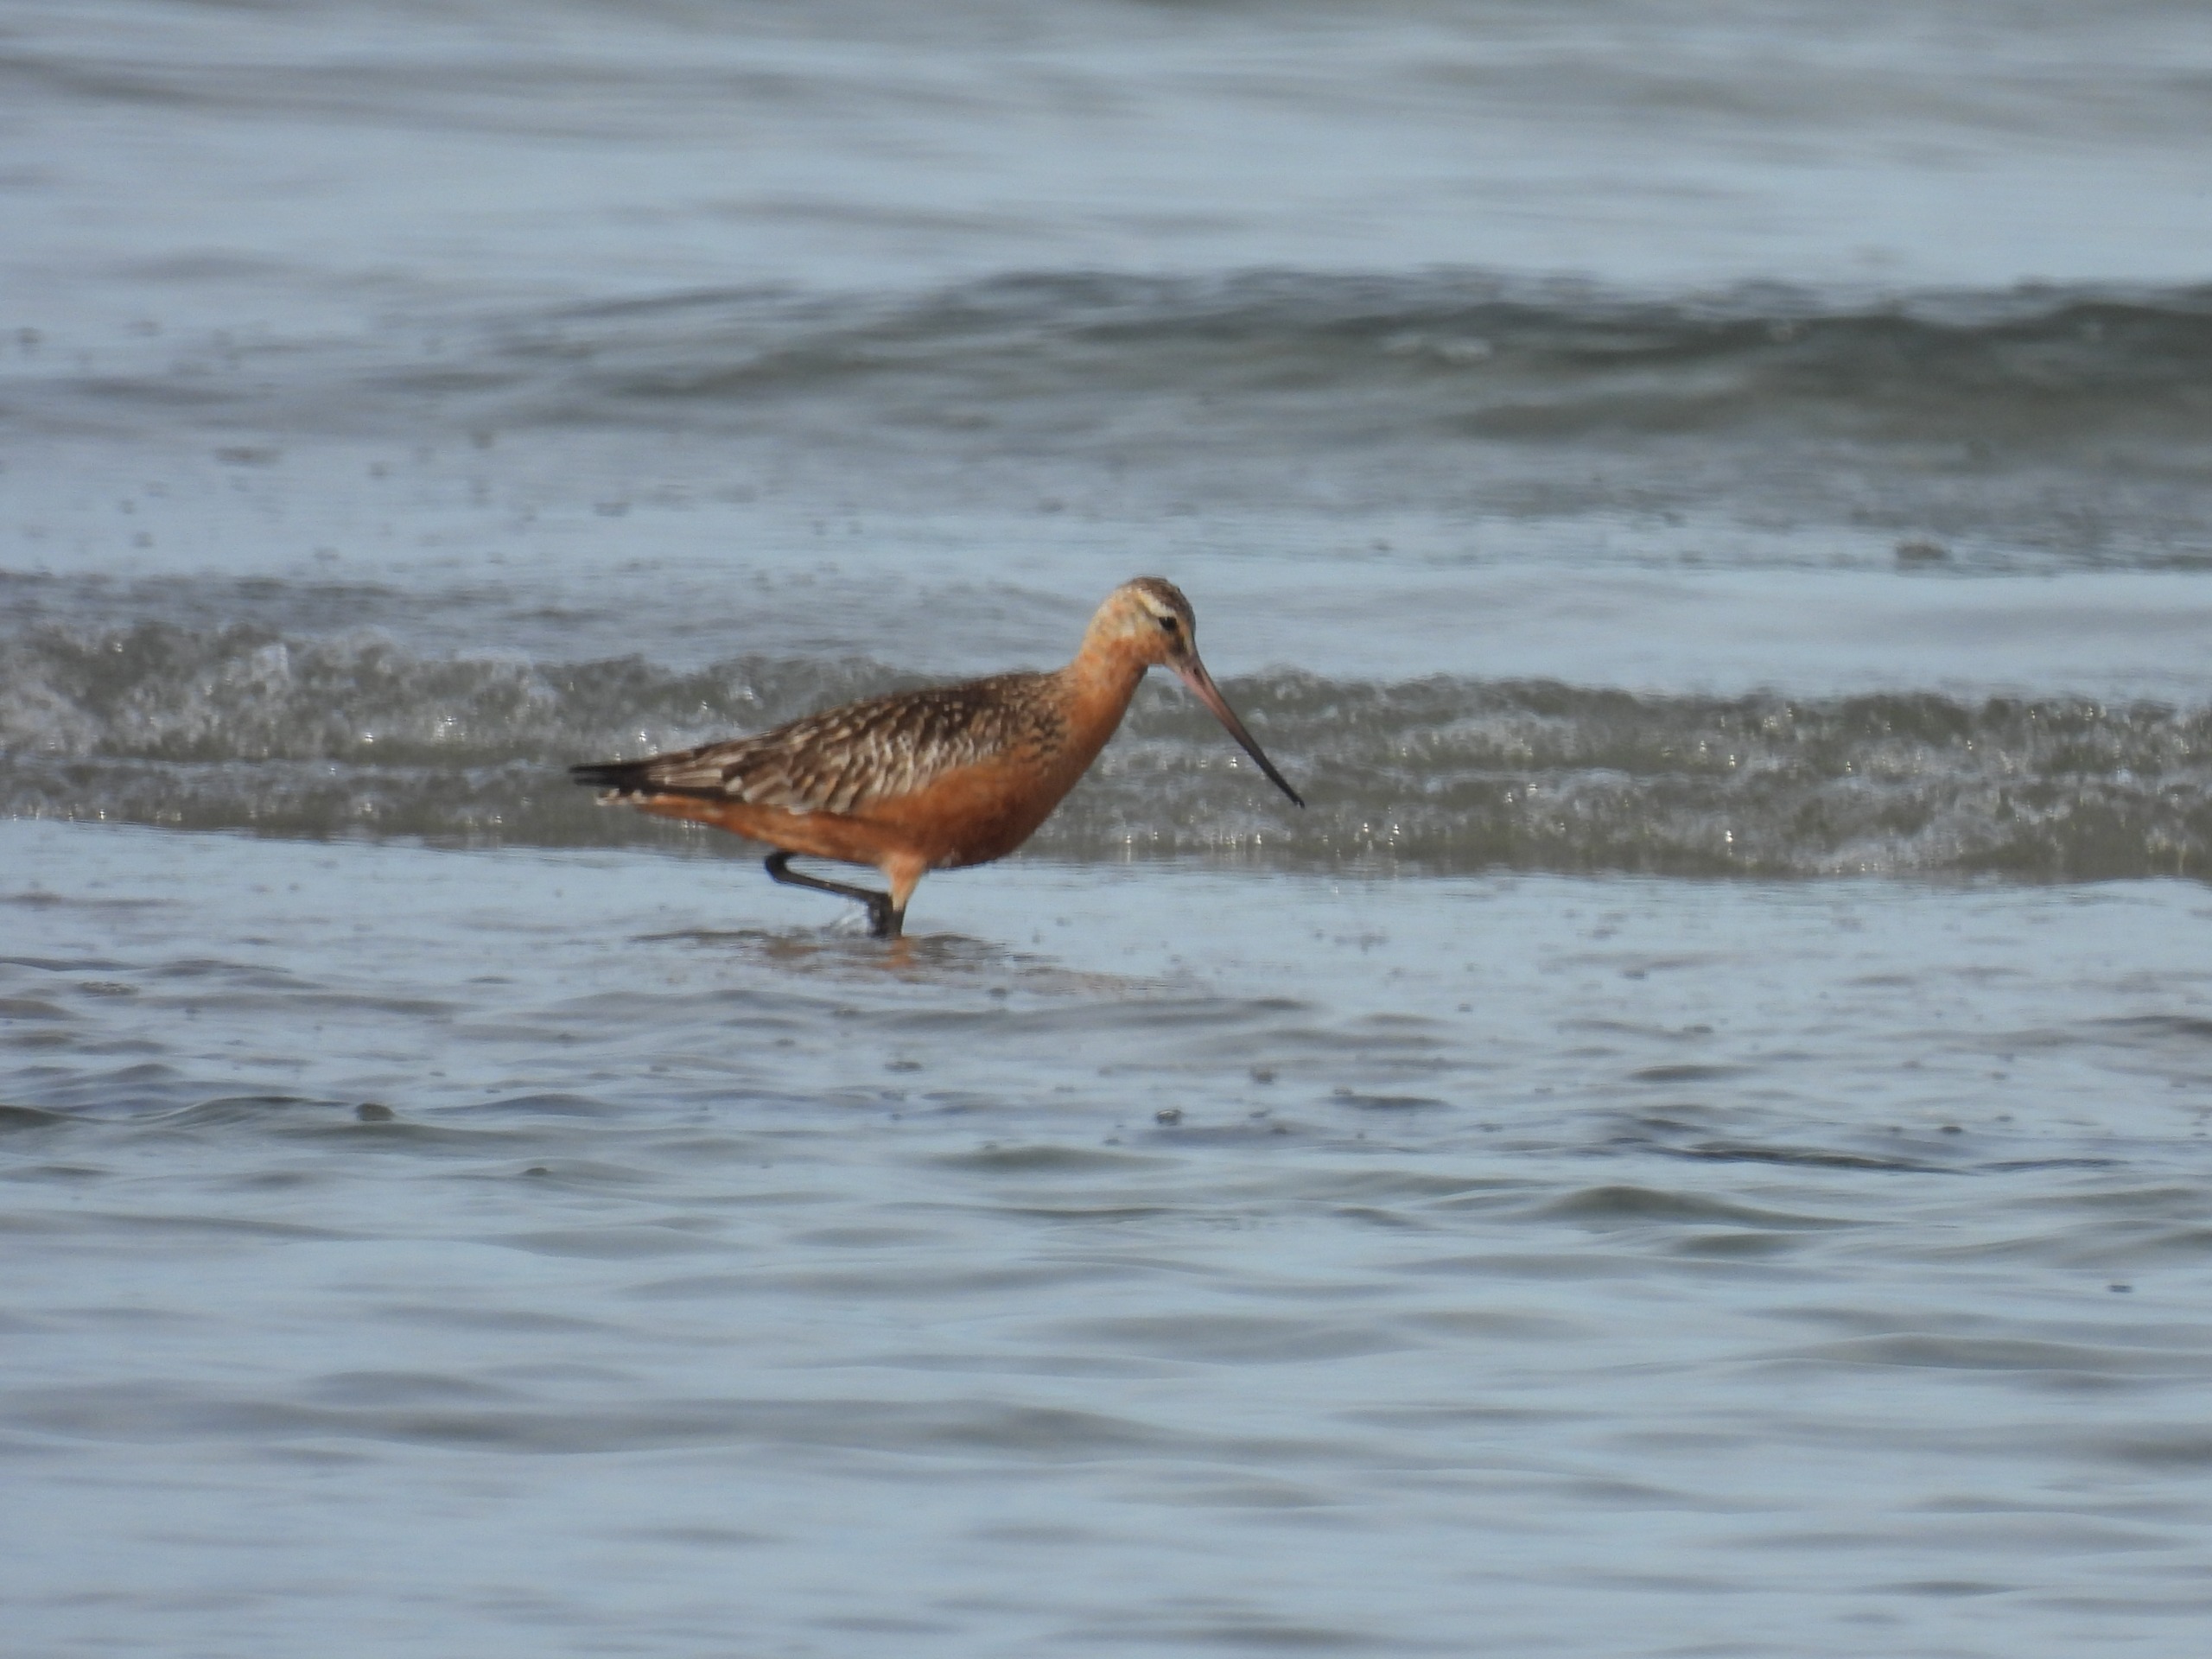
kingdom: Animalia
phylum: Chordata
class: Aves
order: Charadriiformes
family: Scolopacidae
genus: Limosa
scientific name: Limosa lapponica
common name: Lille kobbersneppe
